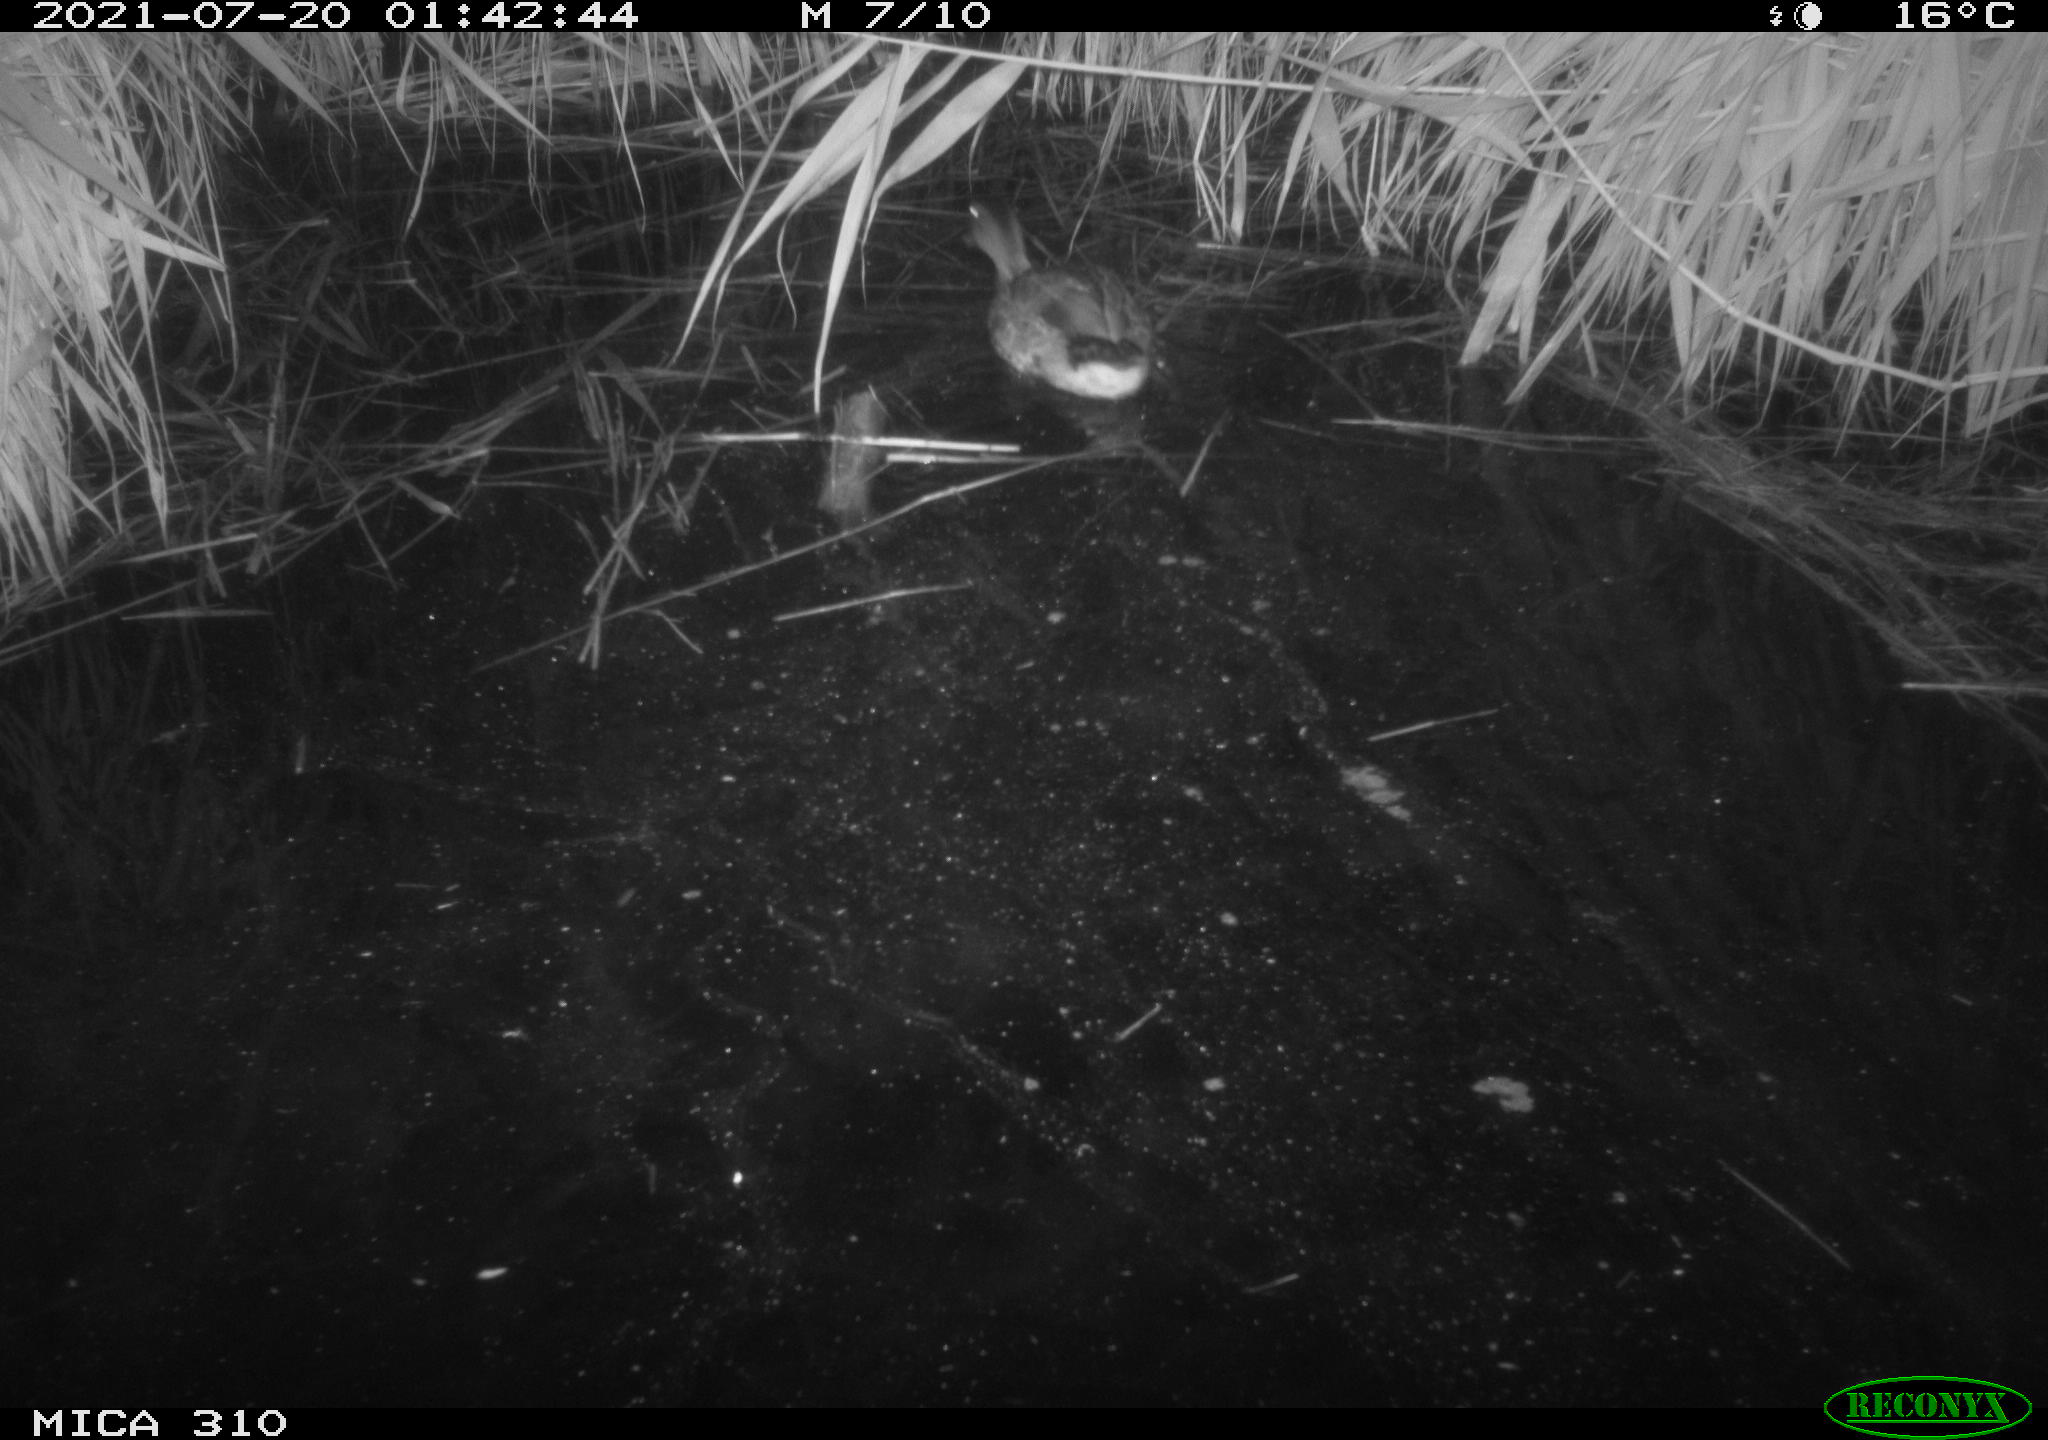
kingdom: Animalia
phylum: Chordata
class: Aves
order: Anseriformes
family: Anatidae
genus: Anas
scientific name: Anas platyrhynchos
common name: Mallard
